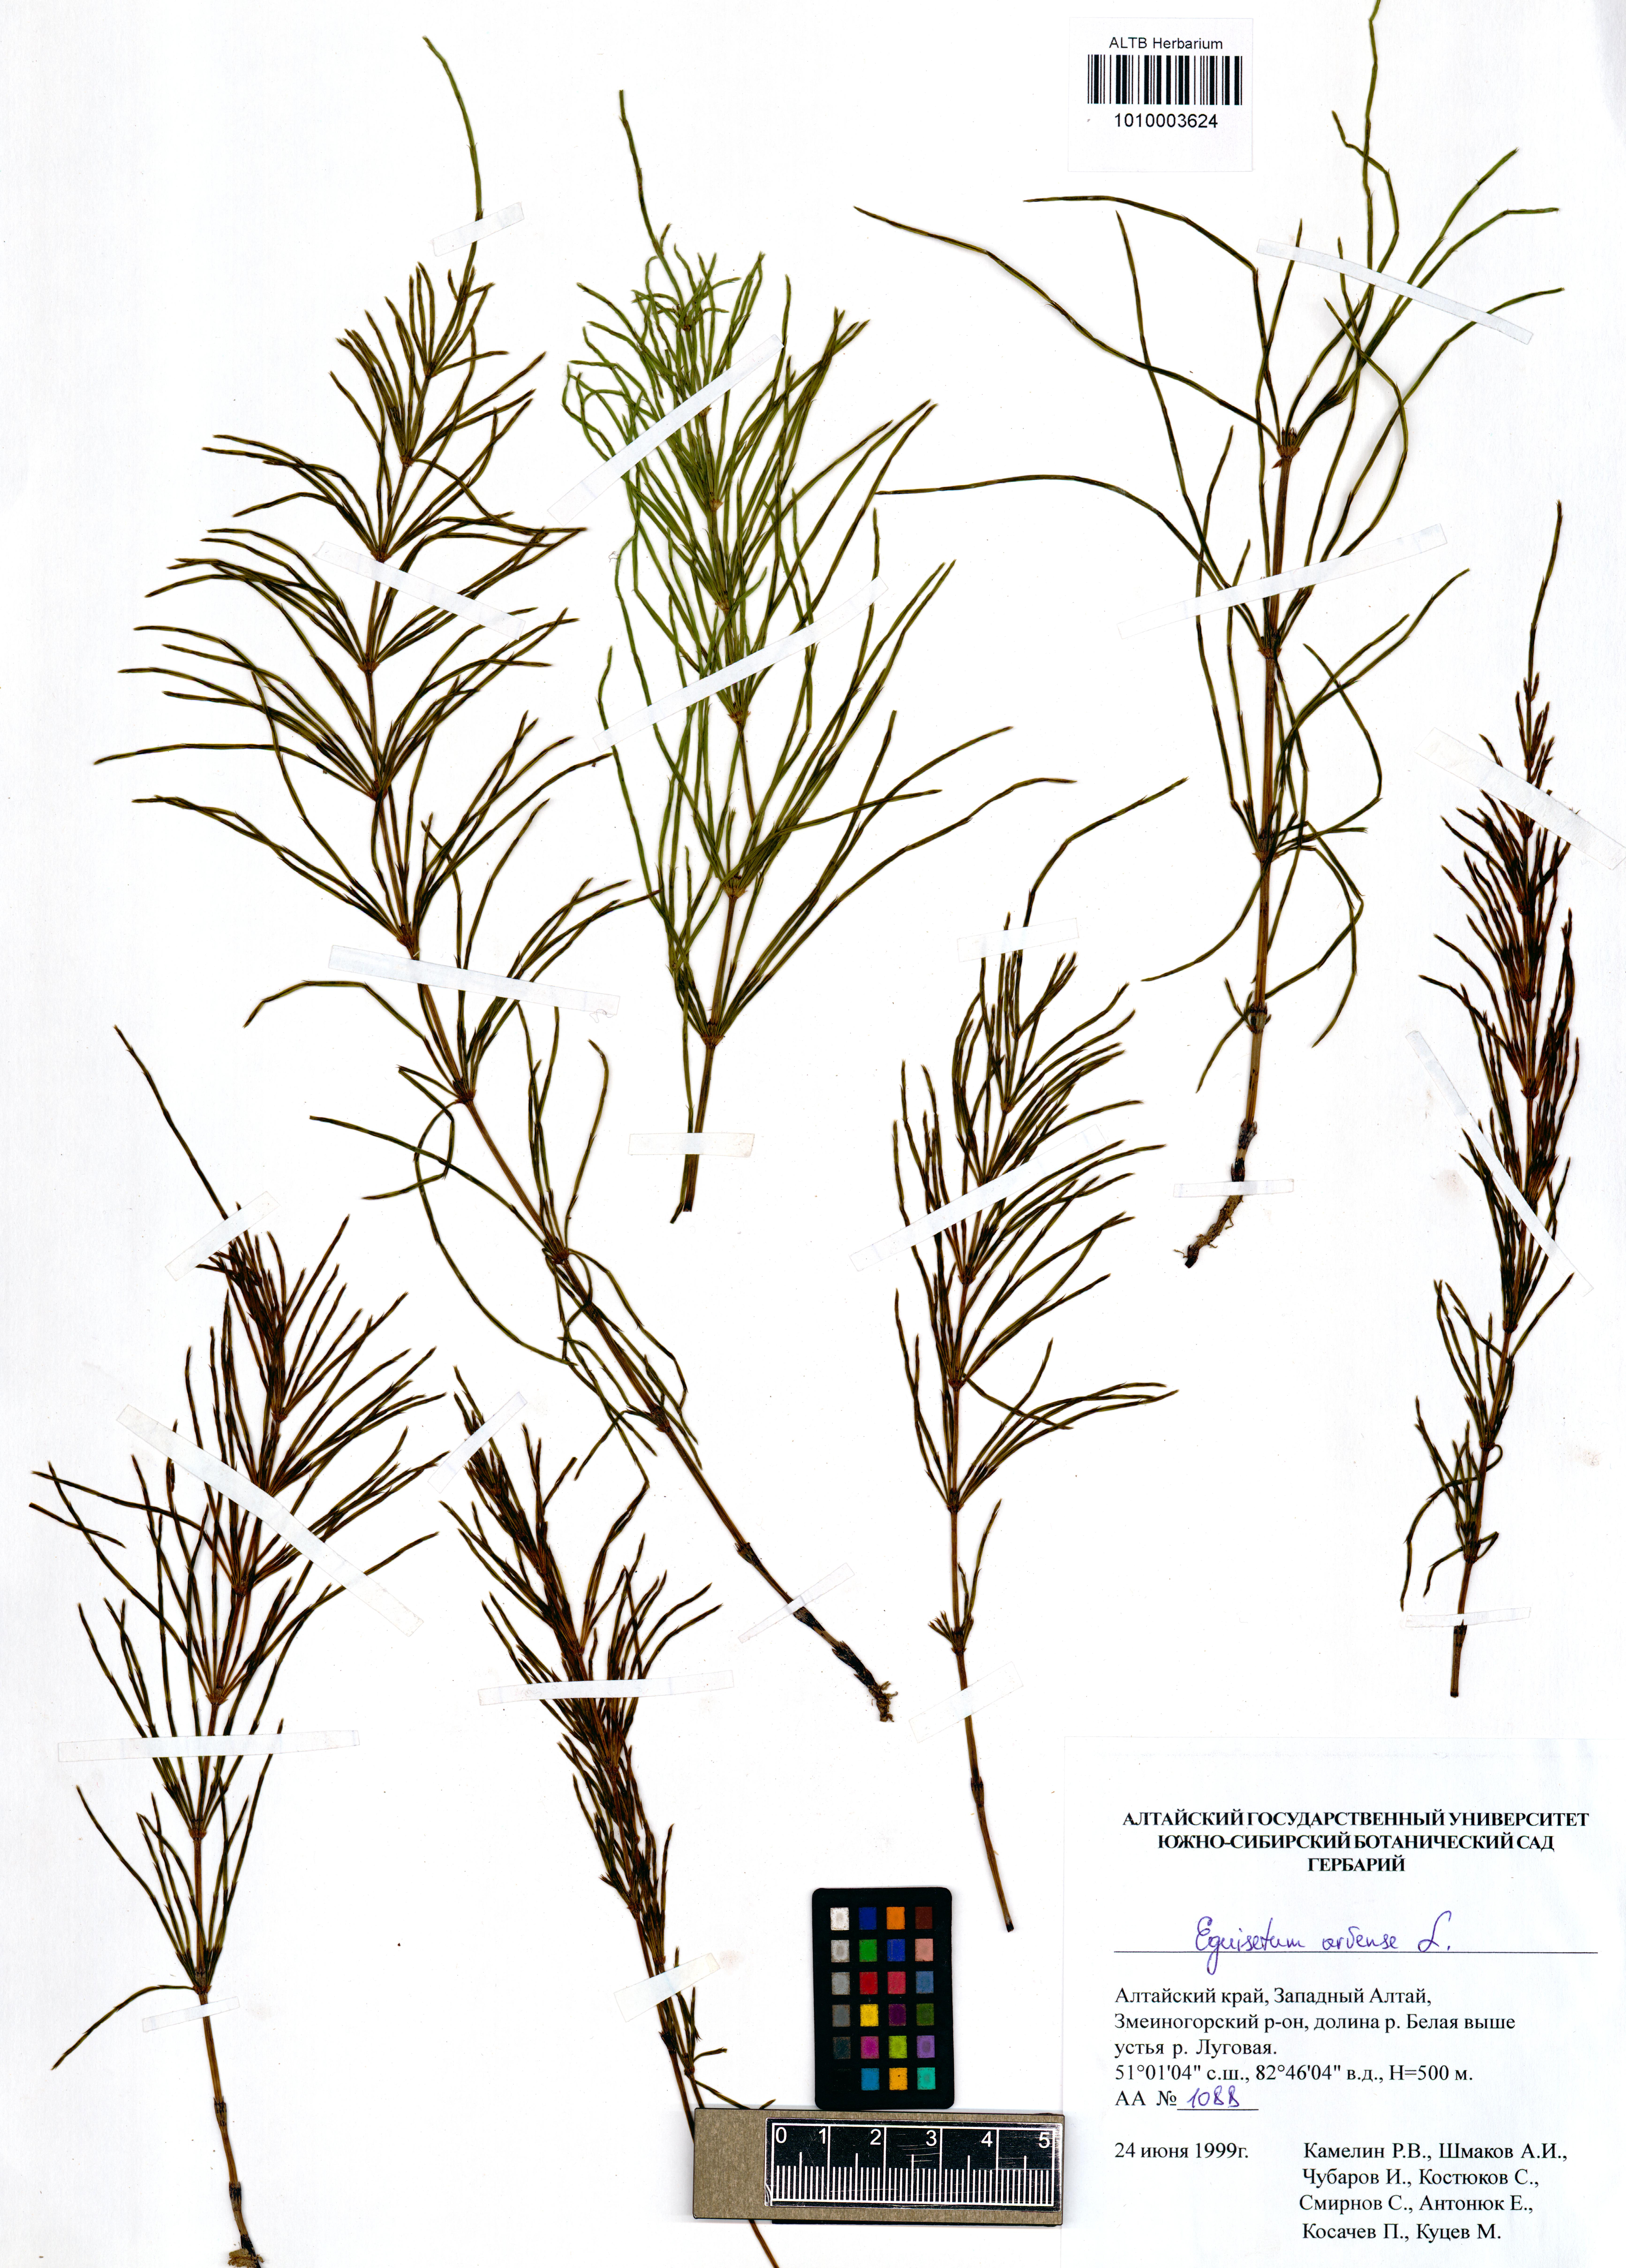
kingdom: Plantae
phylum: Tracheophyta
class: Polypodiopsida
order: Equisetales
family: Equisetaceae
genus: Equisetum
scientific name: Equisetum arvense
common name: Field horsetail
